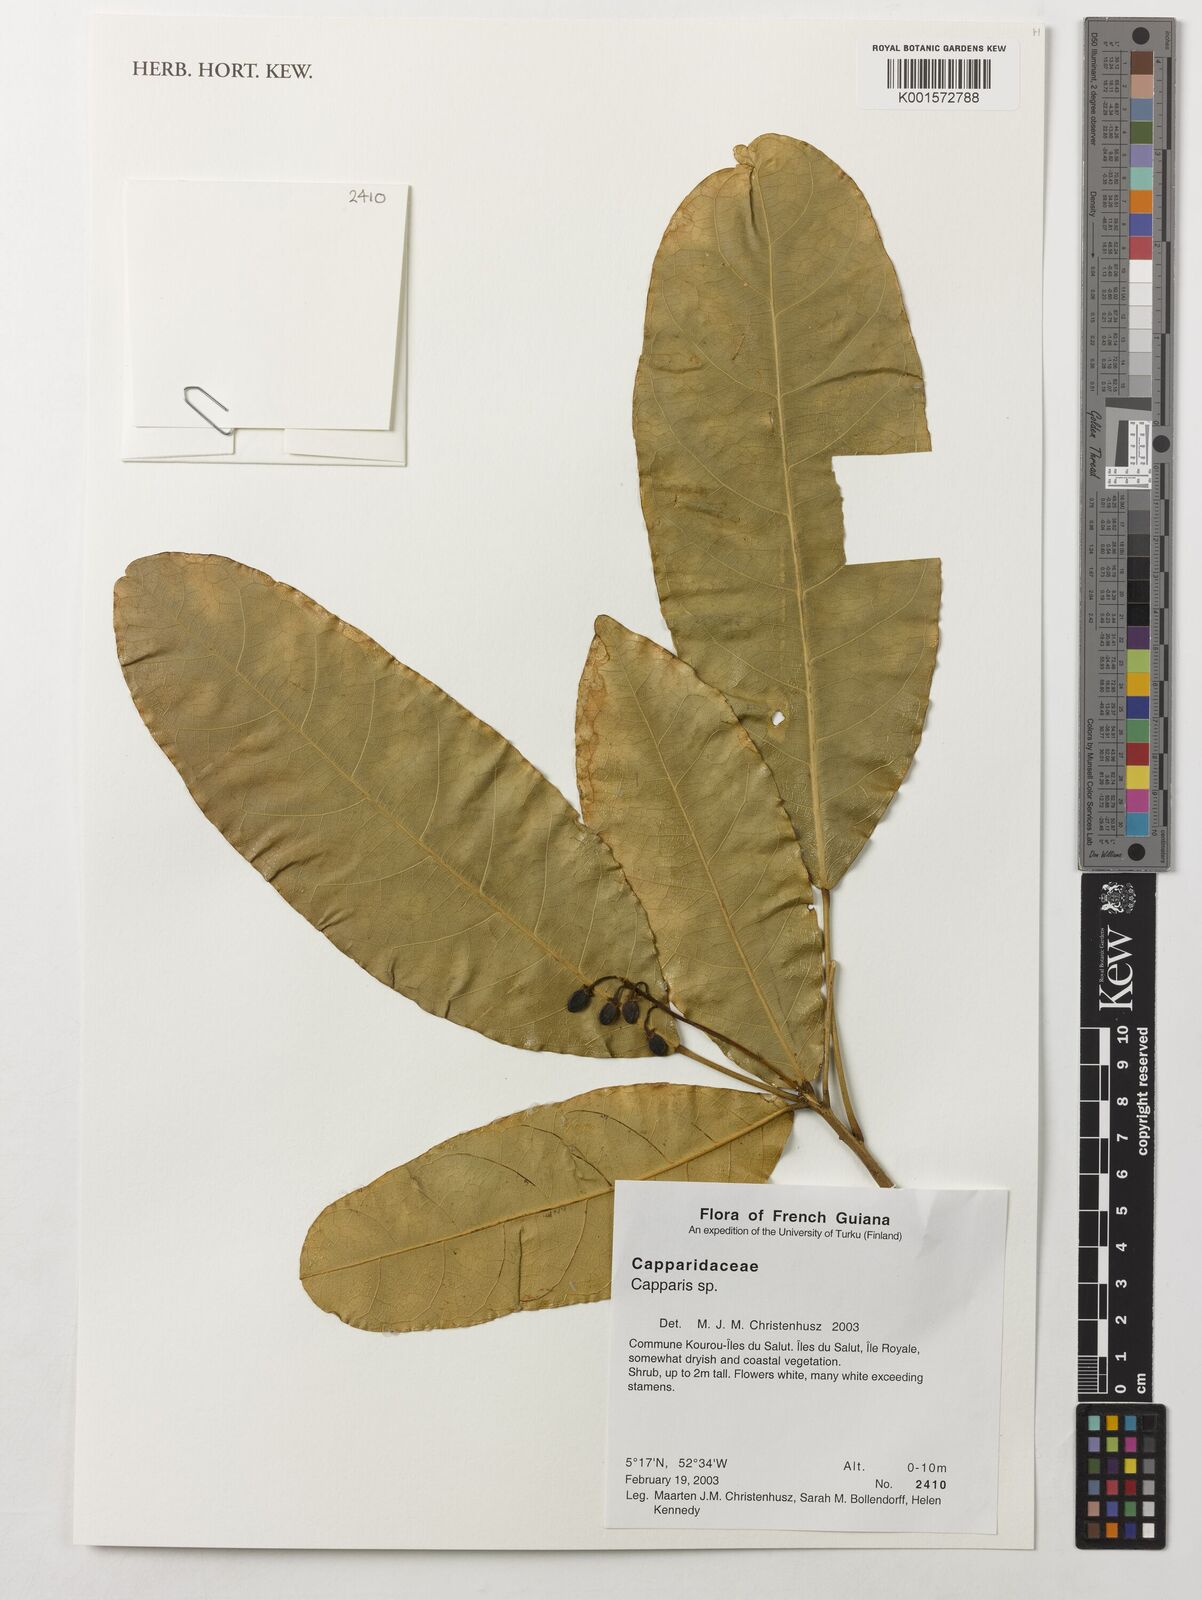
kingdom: Plantae
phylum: Tracheophyta
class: Magnoliopsida
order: Brassicales
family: Capparaceae
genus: Capparis
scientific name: Capparis
